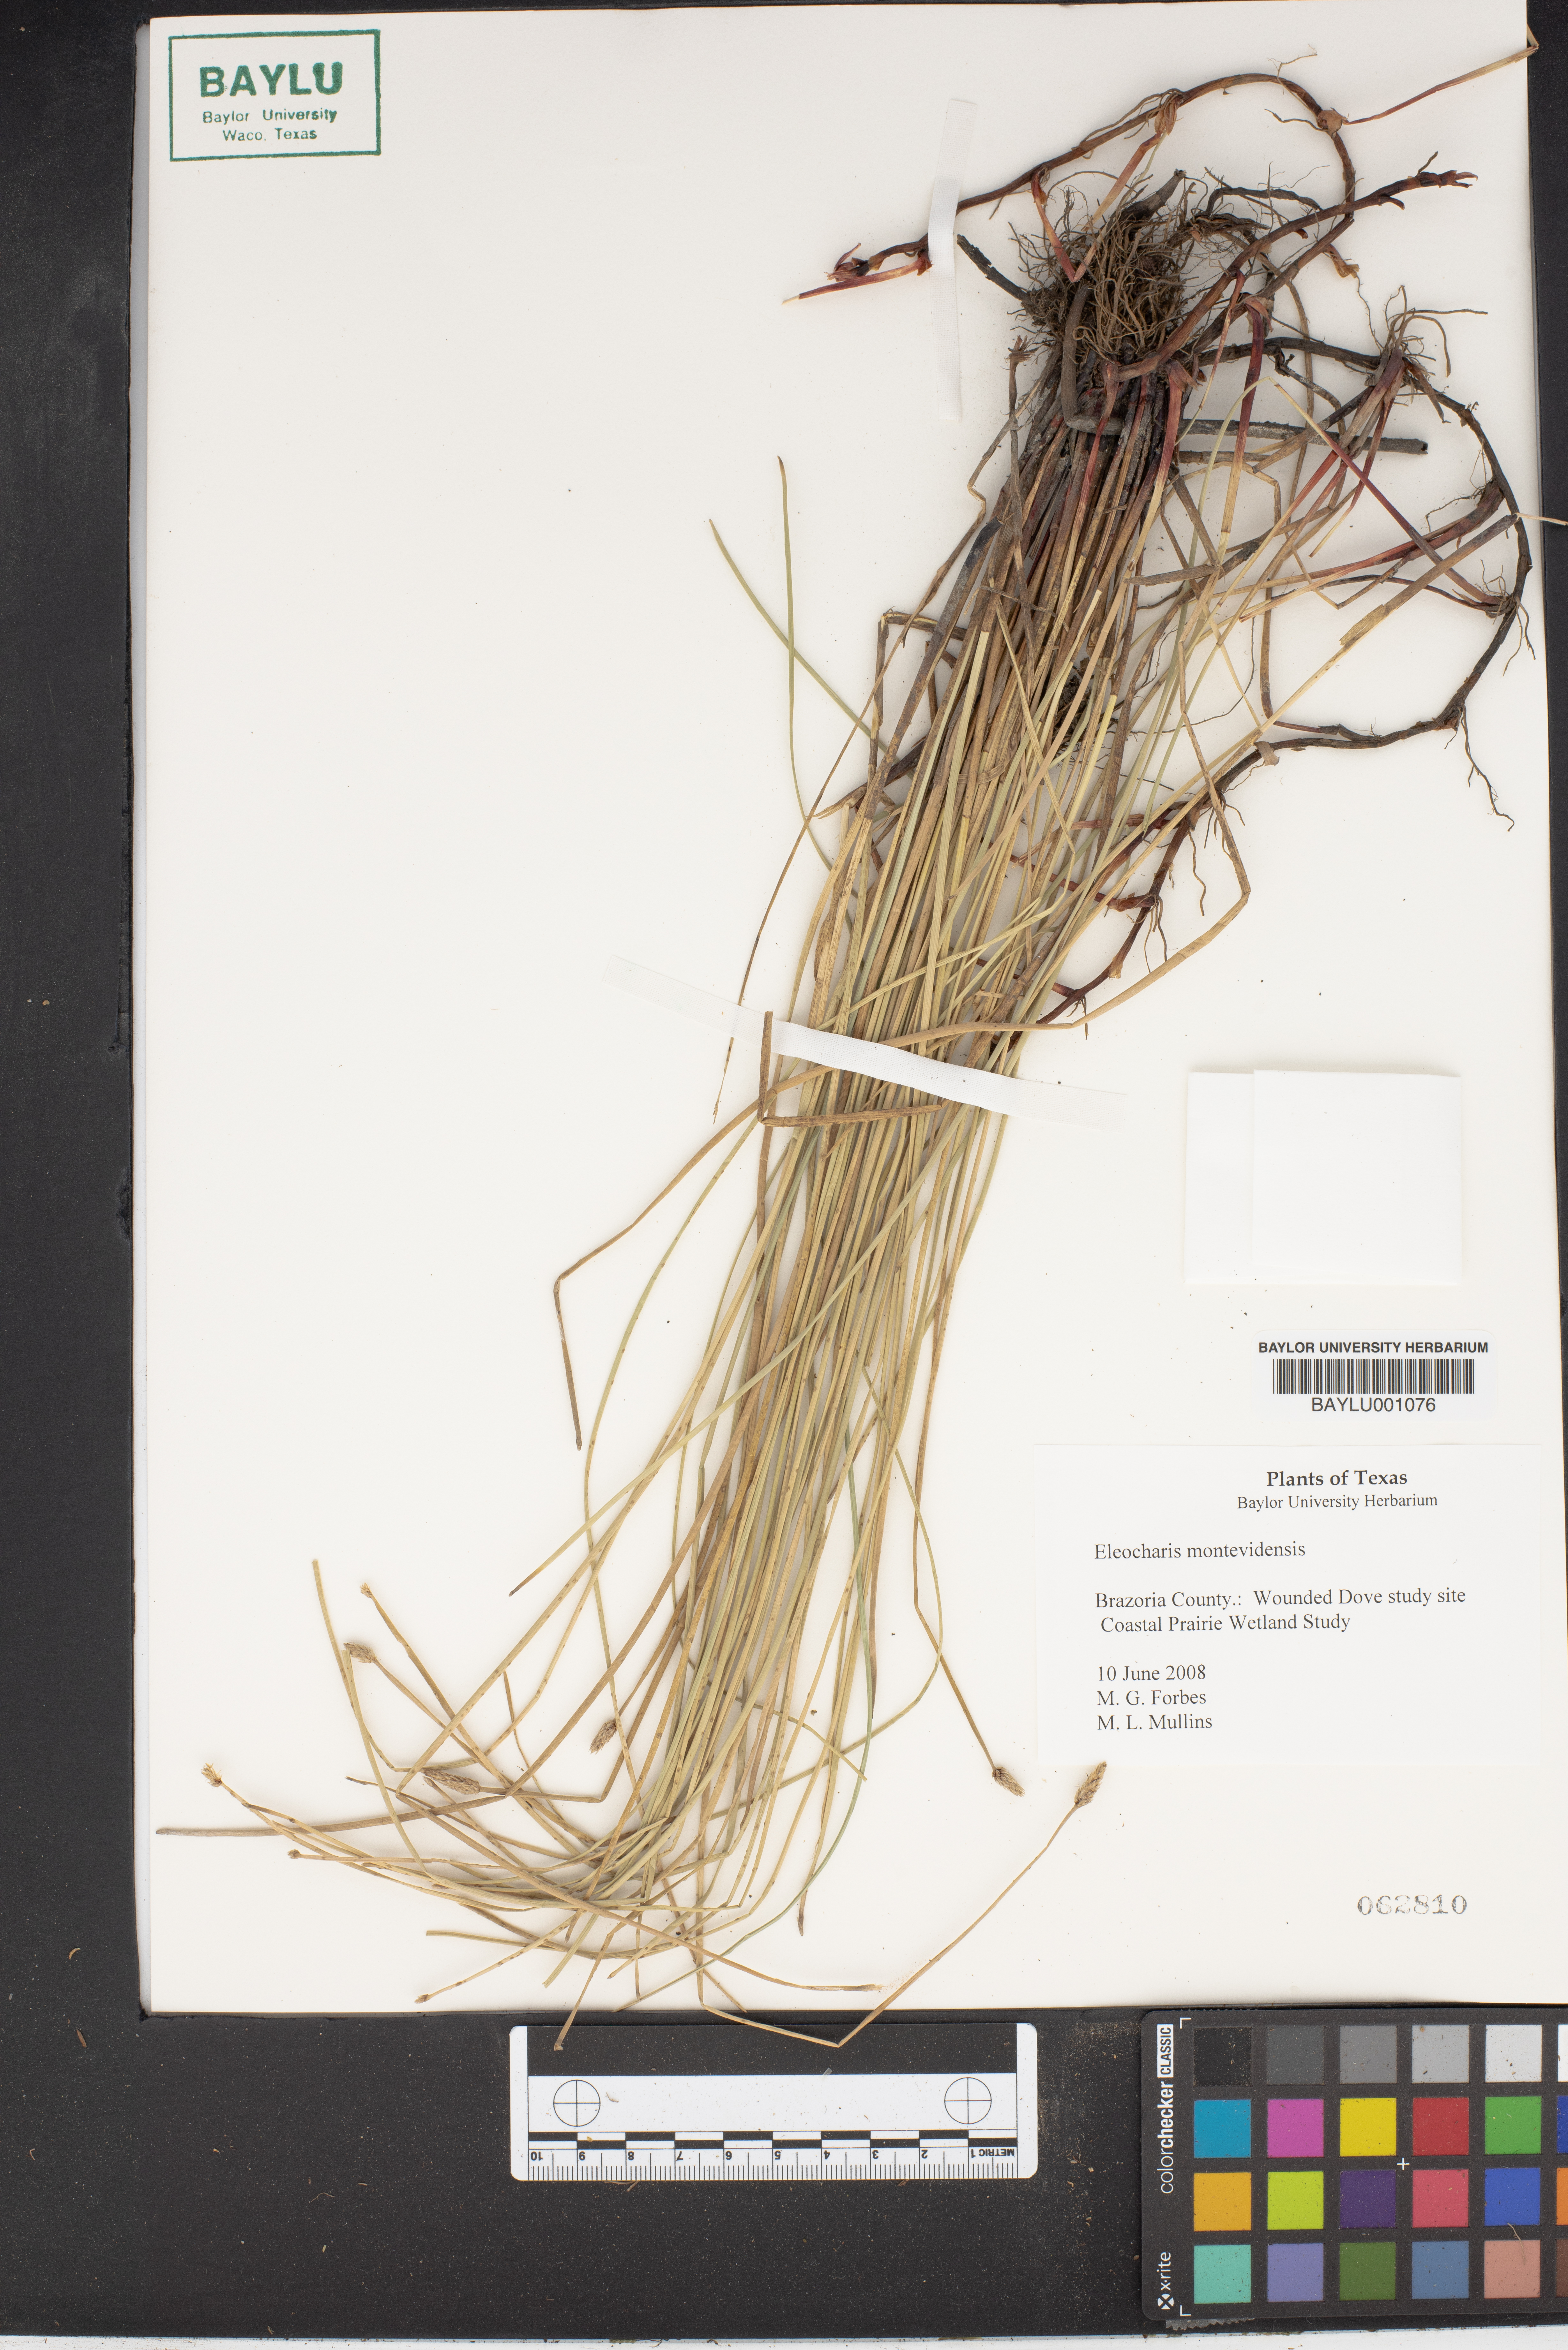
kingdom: Plantae
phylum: Tracheophyta
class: Liliopsida
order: Poales
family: Cyperaceae
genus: Eleocharis
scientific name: Eleocharis montevidensis
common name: Sand spike-rush
